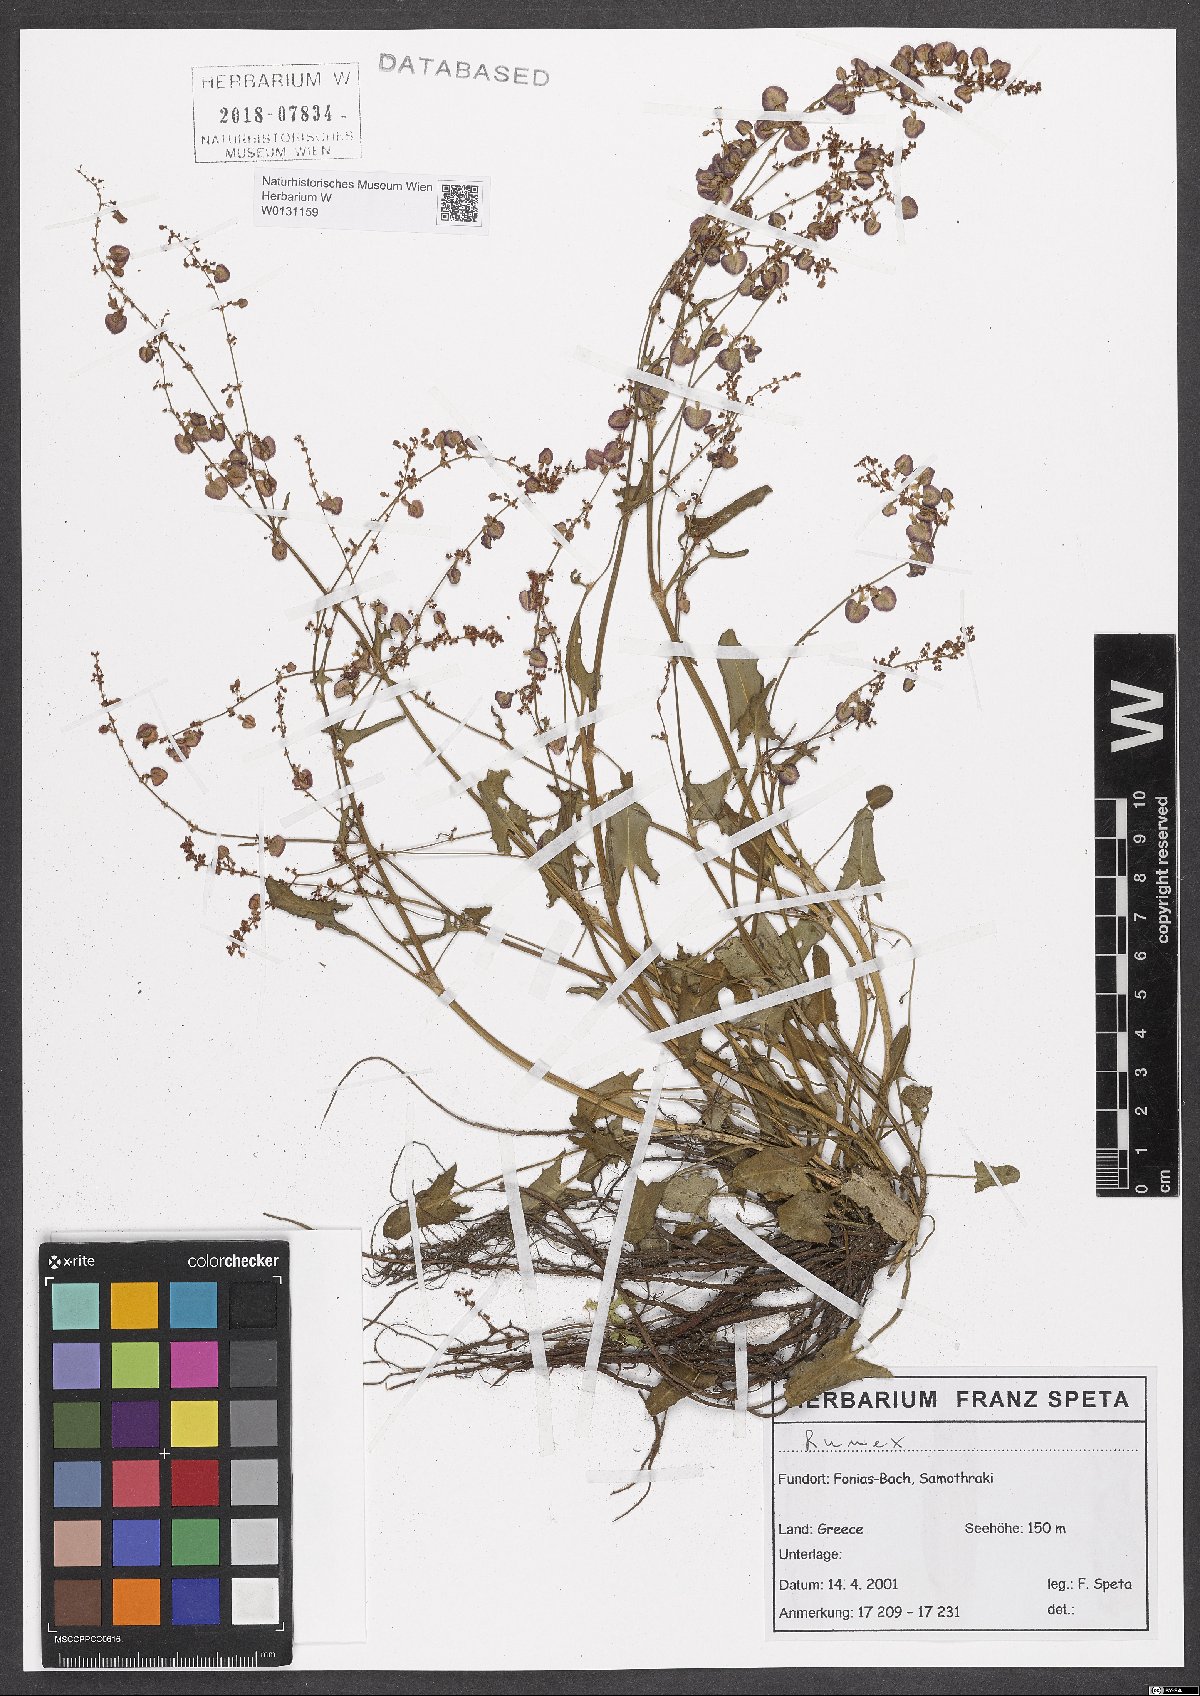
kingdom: Plantae
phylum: Tracheophyta
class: Magnoliopsida
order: Caryophyllales
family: Polygonaceae
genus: Rumex
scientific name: Rumex
